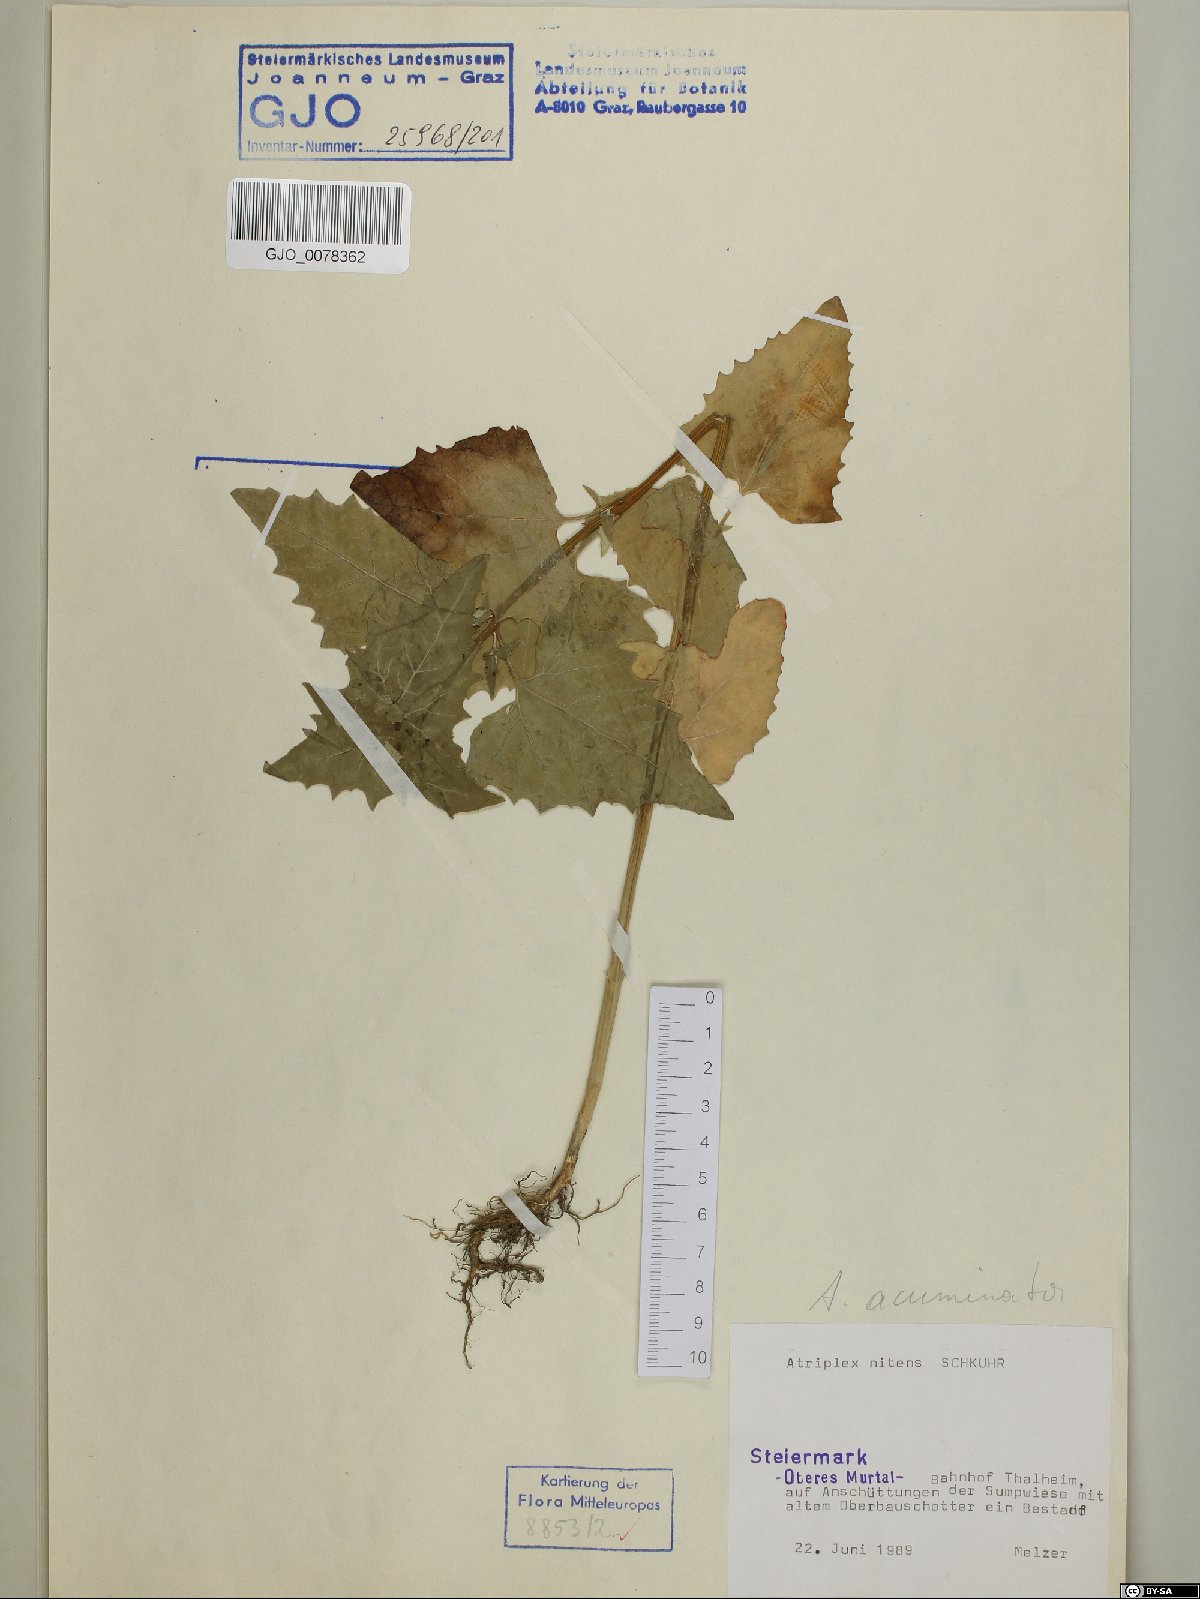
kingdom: Plantae
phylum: Tracheophyta
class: Magnoliopsida
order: Caryophyllales
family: Amaranthaceae
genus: Atriplex
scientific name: Atriplex sagittata
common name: Purple orache
